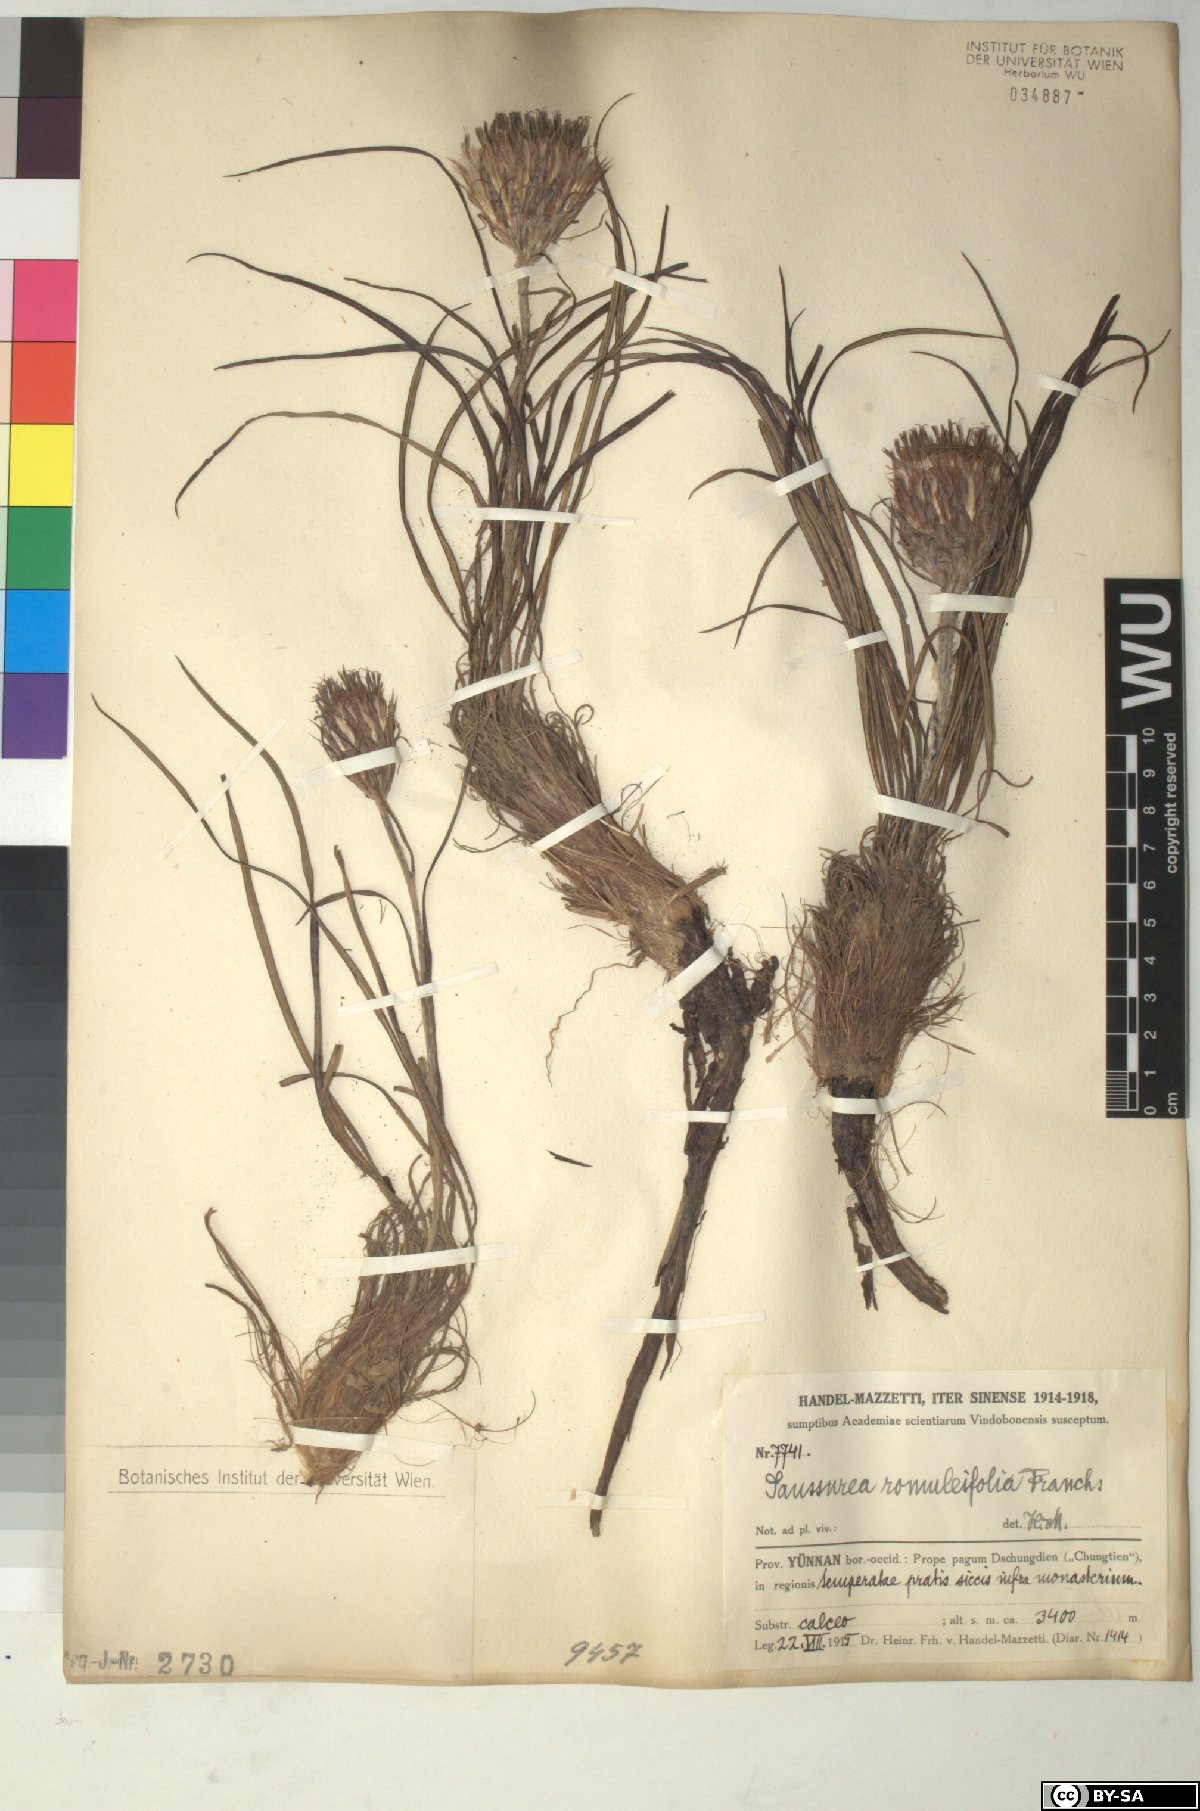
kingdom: Plantae
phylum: Tracheophyta
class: Magnoliopsida
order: Asterales
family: Asteraceae
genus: Saussurea
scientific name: Saussurea romuleifolia
